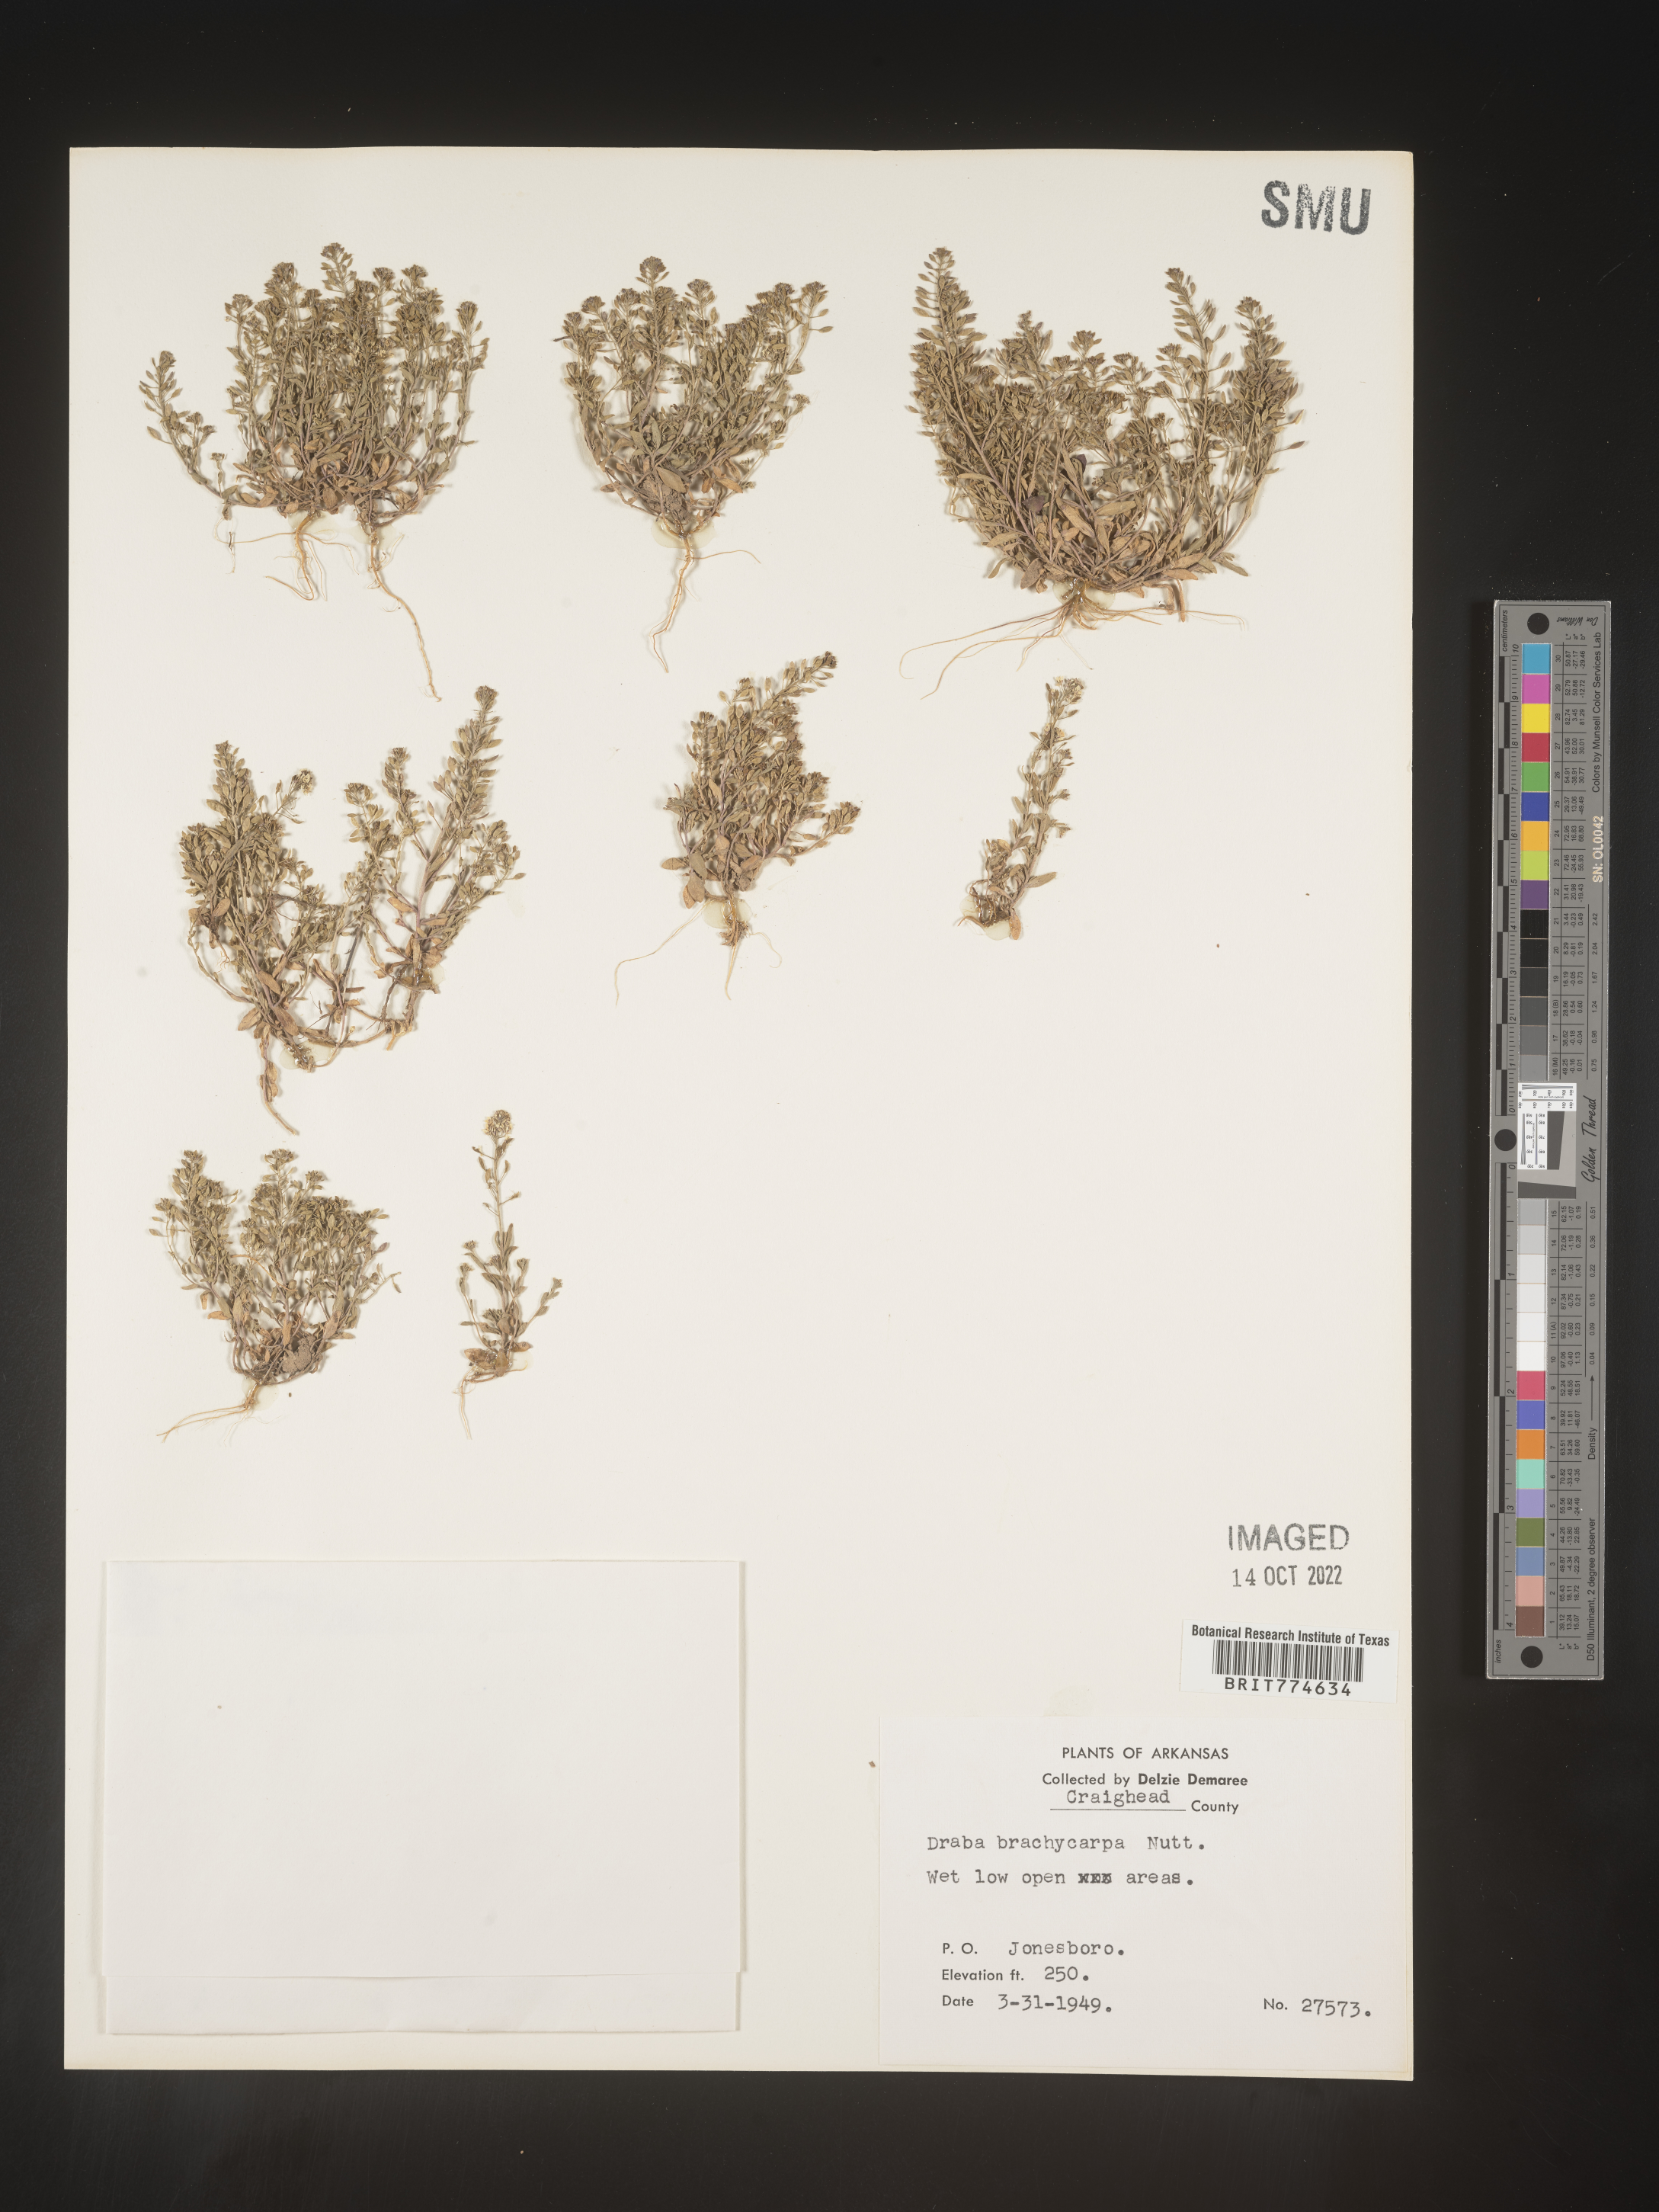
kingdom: Plantae
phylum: Tracheophyta
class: Magnoliopsida
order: Brassicales
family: Brassicaceae
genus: Abdra
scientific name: Abdra brachycarpa
